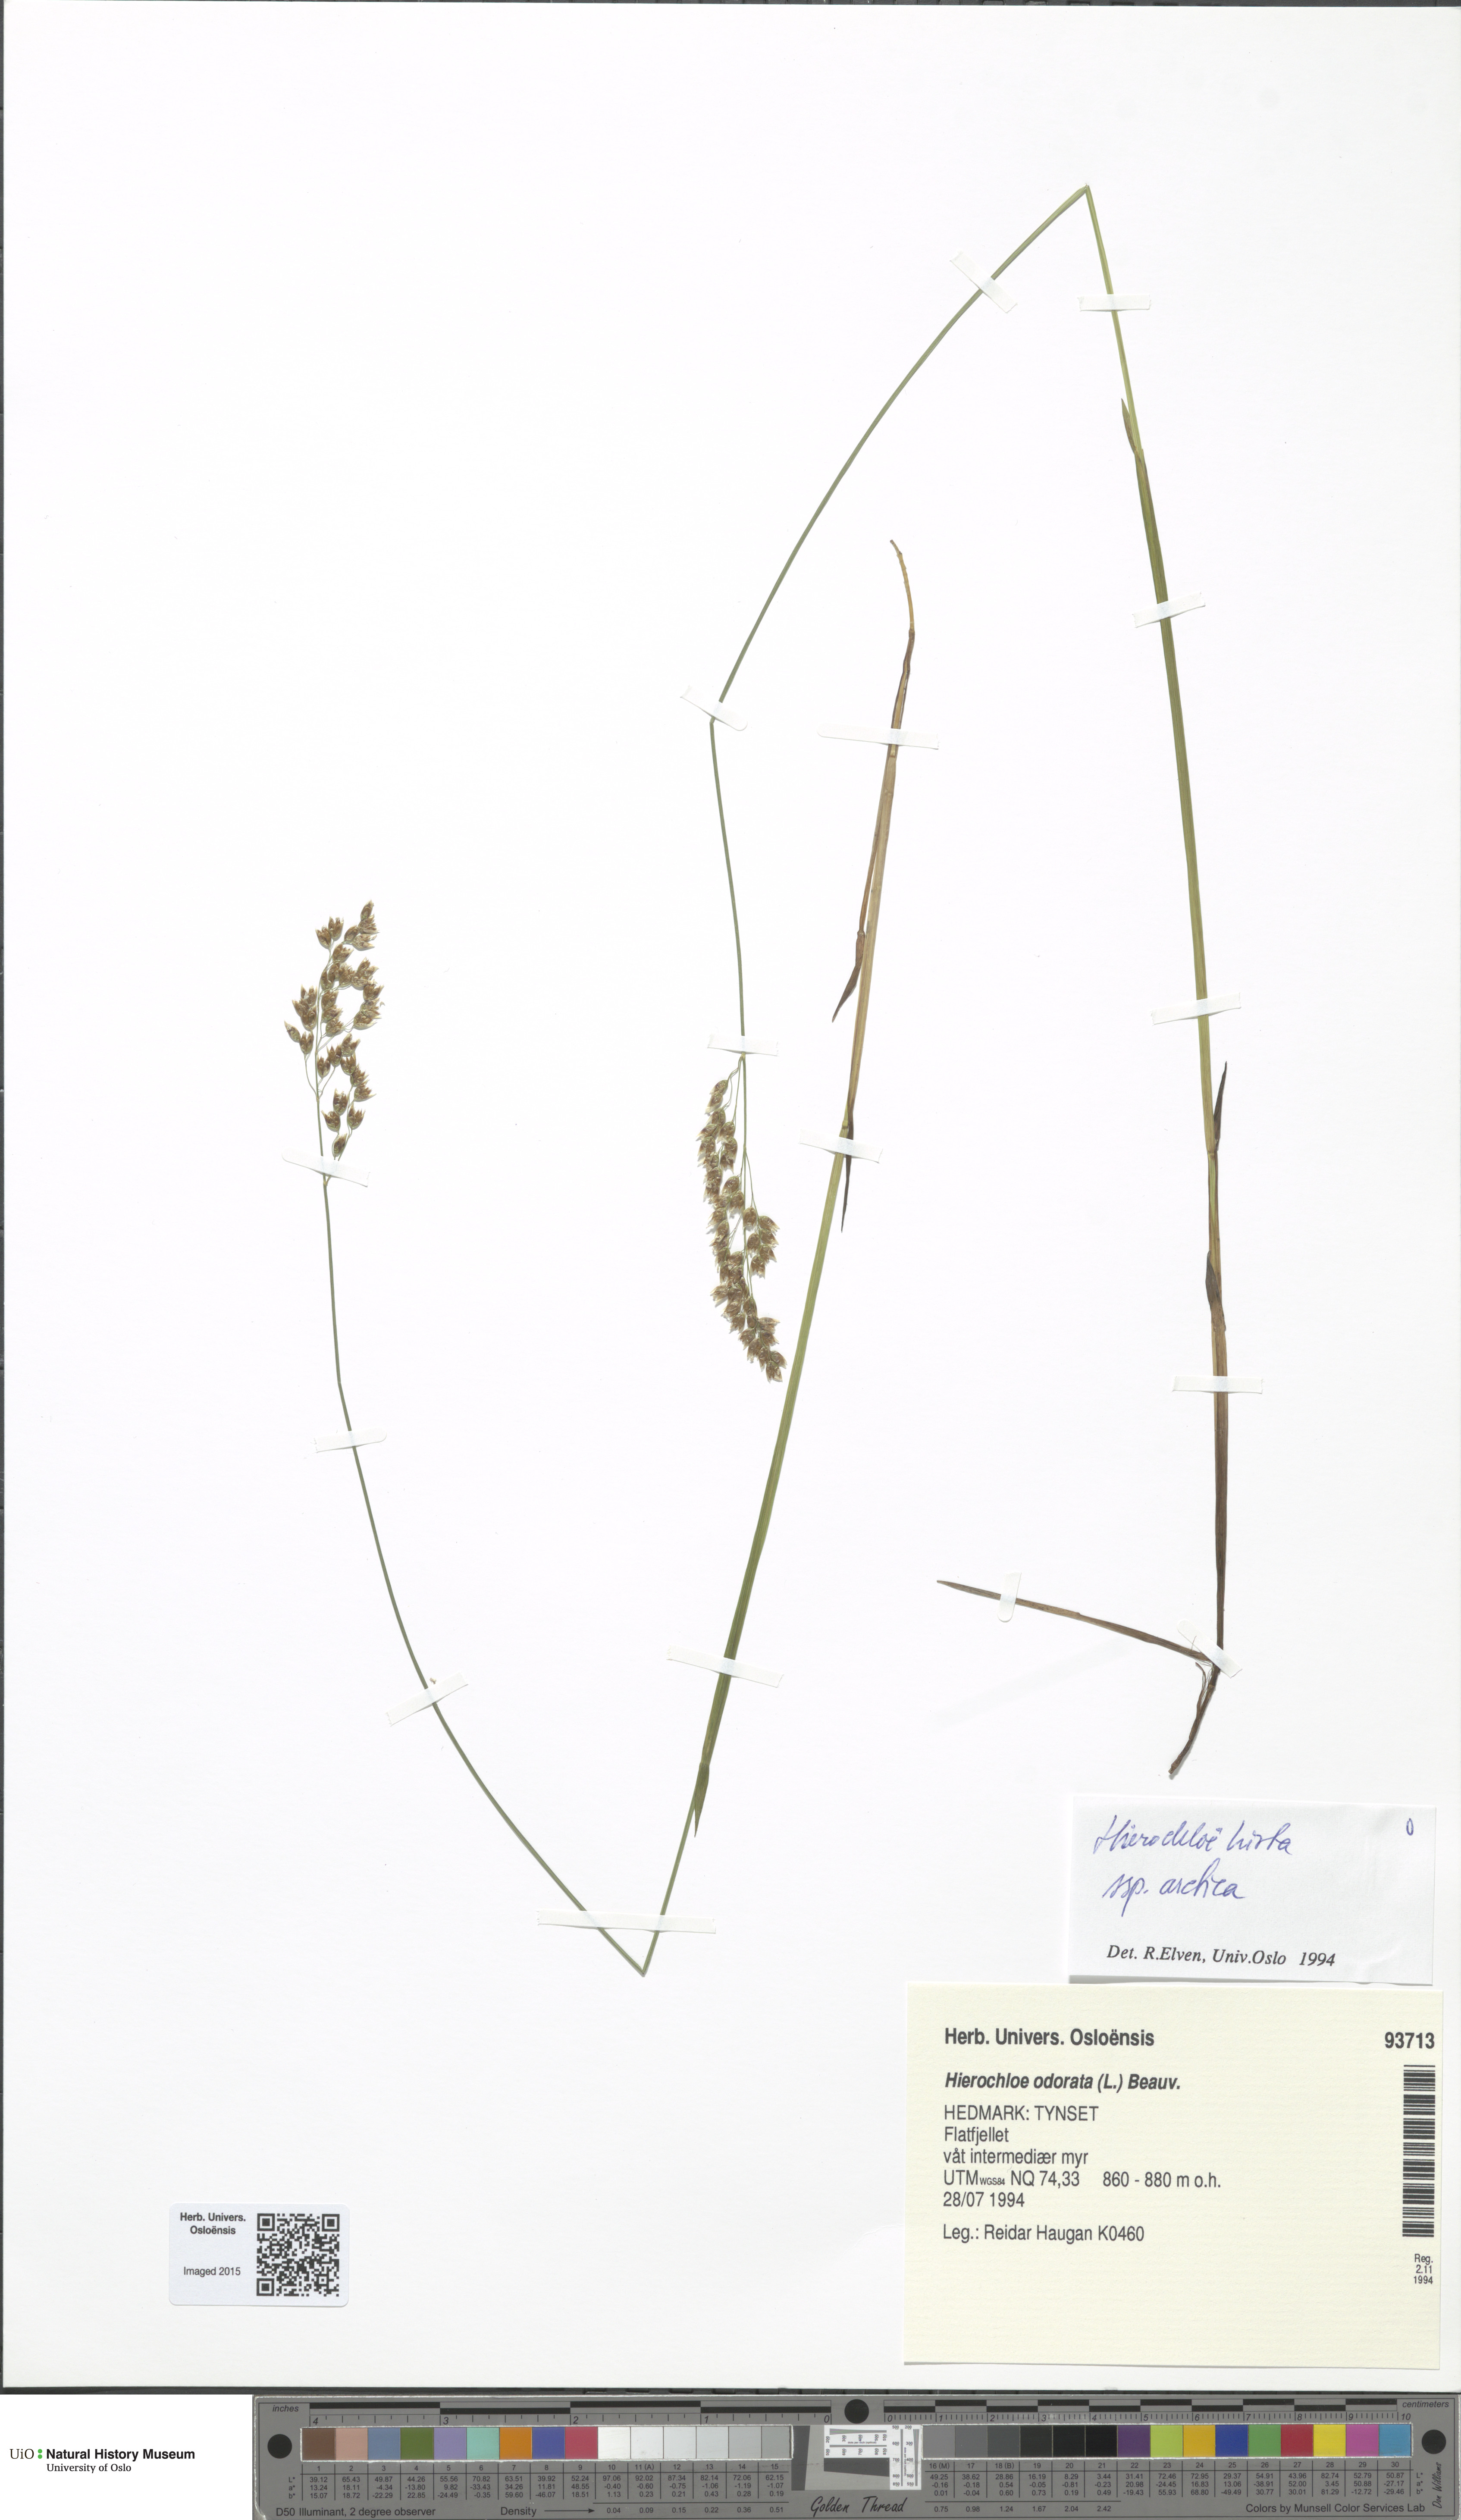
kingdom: Plantae
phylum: Tracheophyta
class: Liliopsida
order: Poales
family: Poaceae
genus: Anthoxanthum
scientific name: Anthoxanthum nitens
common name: Holy grass
